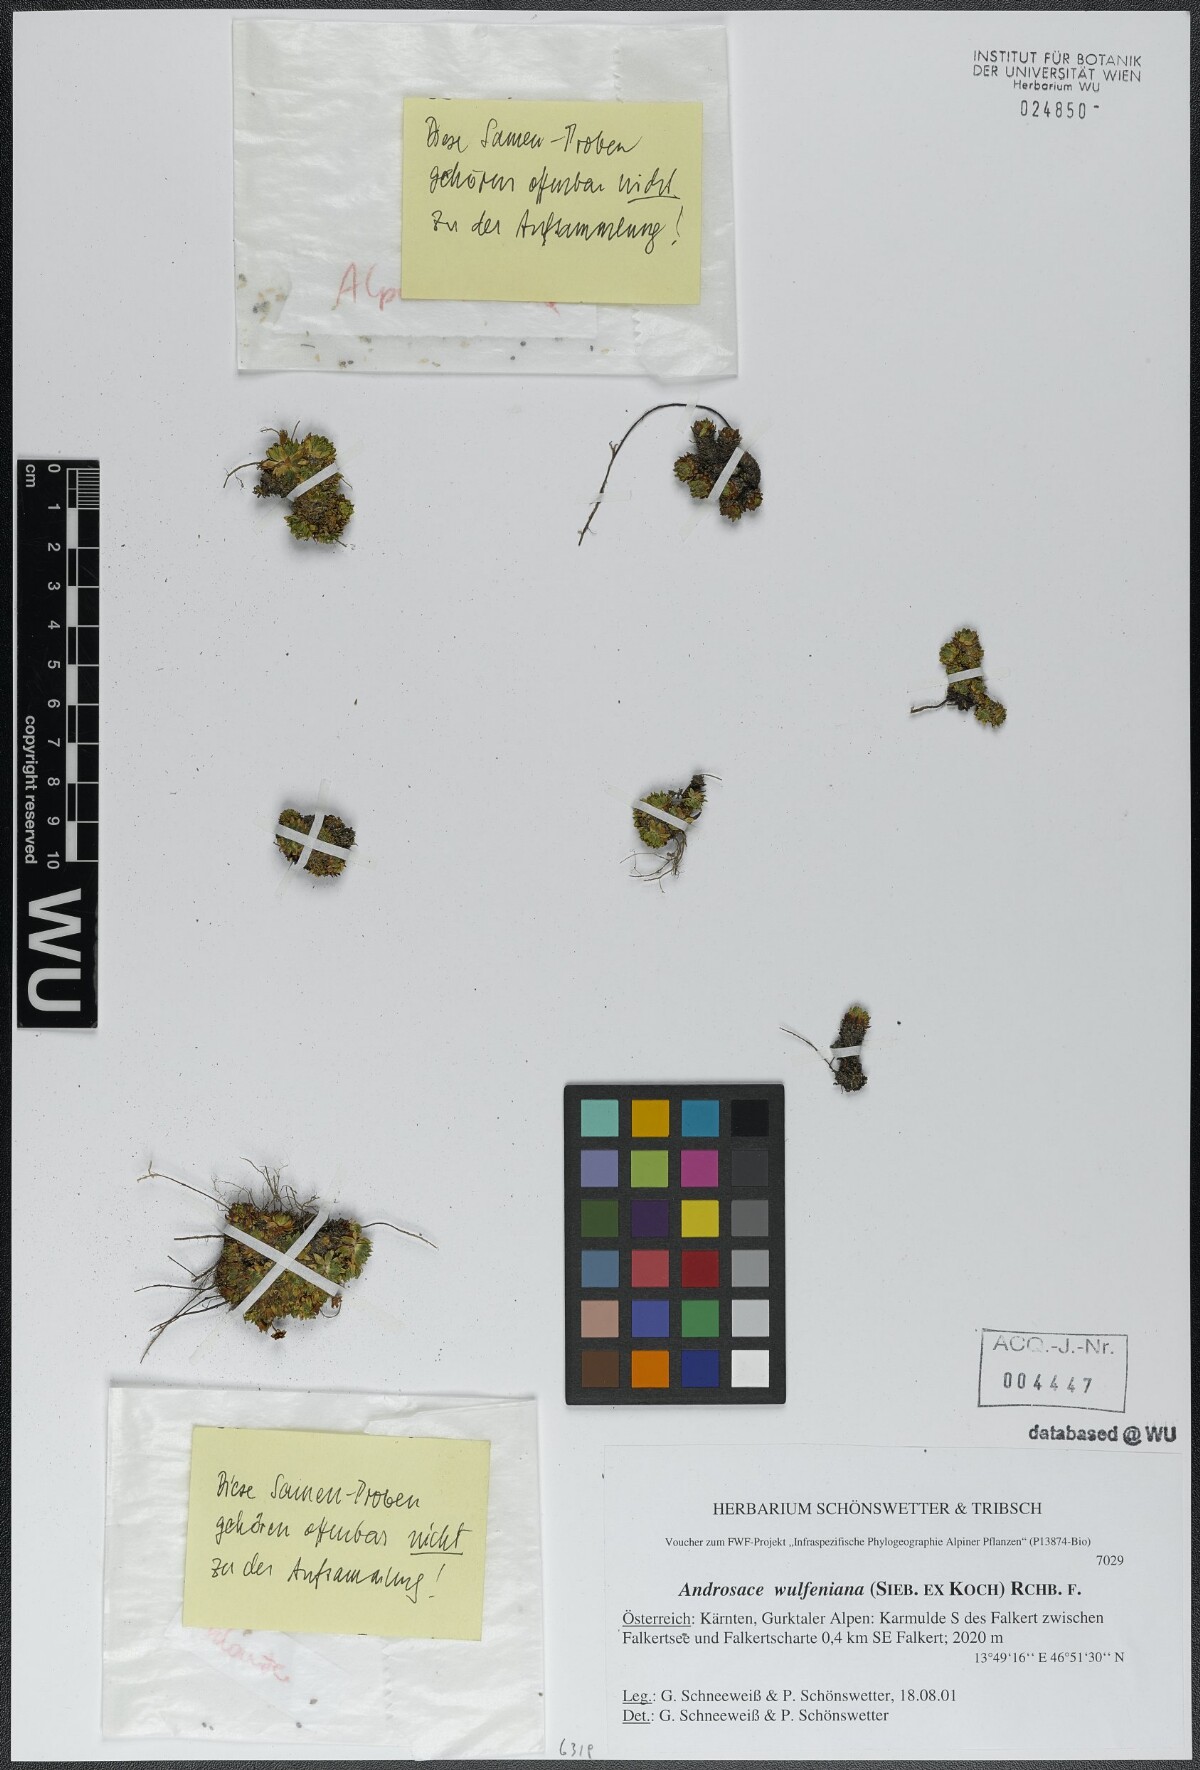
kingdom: Plantae
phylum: Tracheophyta
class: Magnoliopsida
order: Ericales
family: Primulaceae
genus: Androsace
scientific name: Androsace wulfeniana
